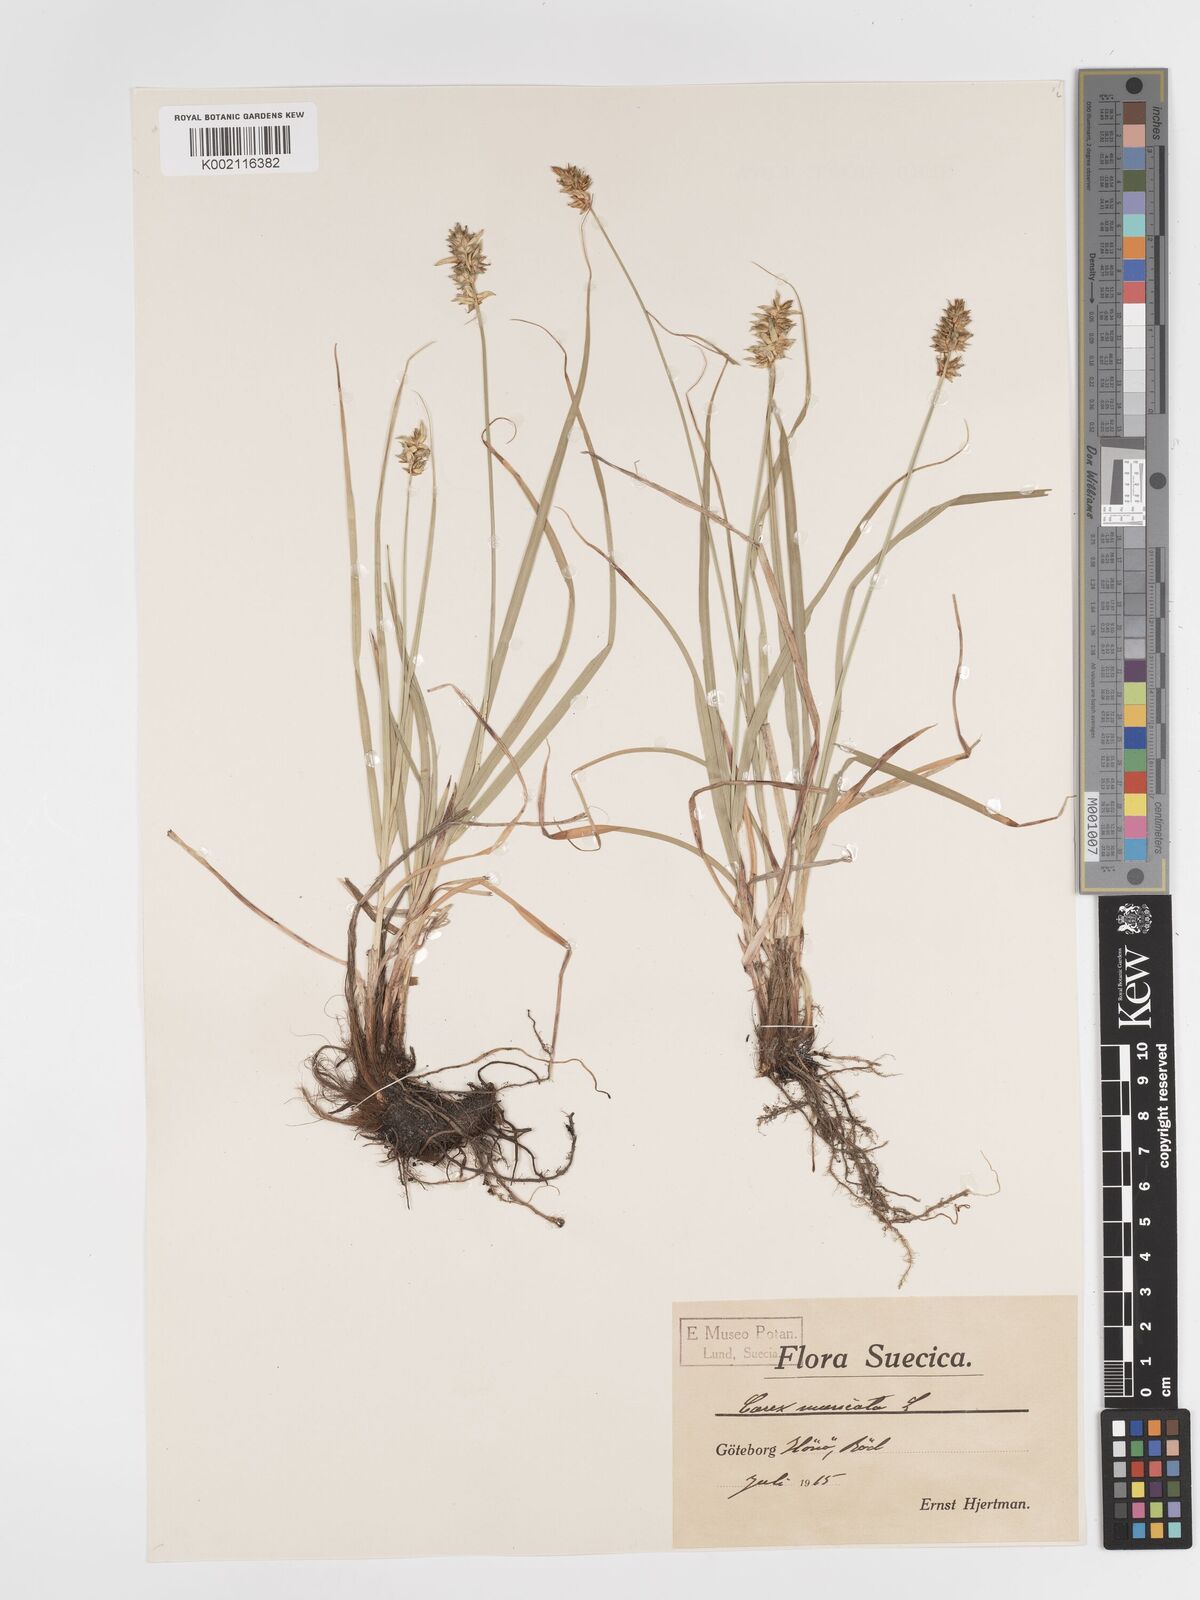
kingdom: Plantae
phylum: Tracheophyta
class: Liliopsida
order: Poales
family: Cyperaceae
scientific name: Cyperaceae
